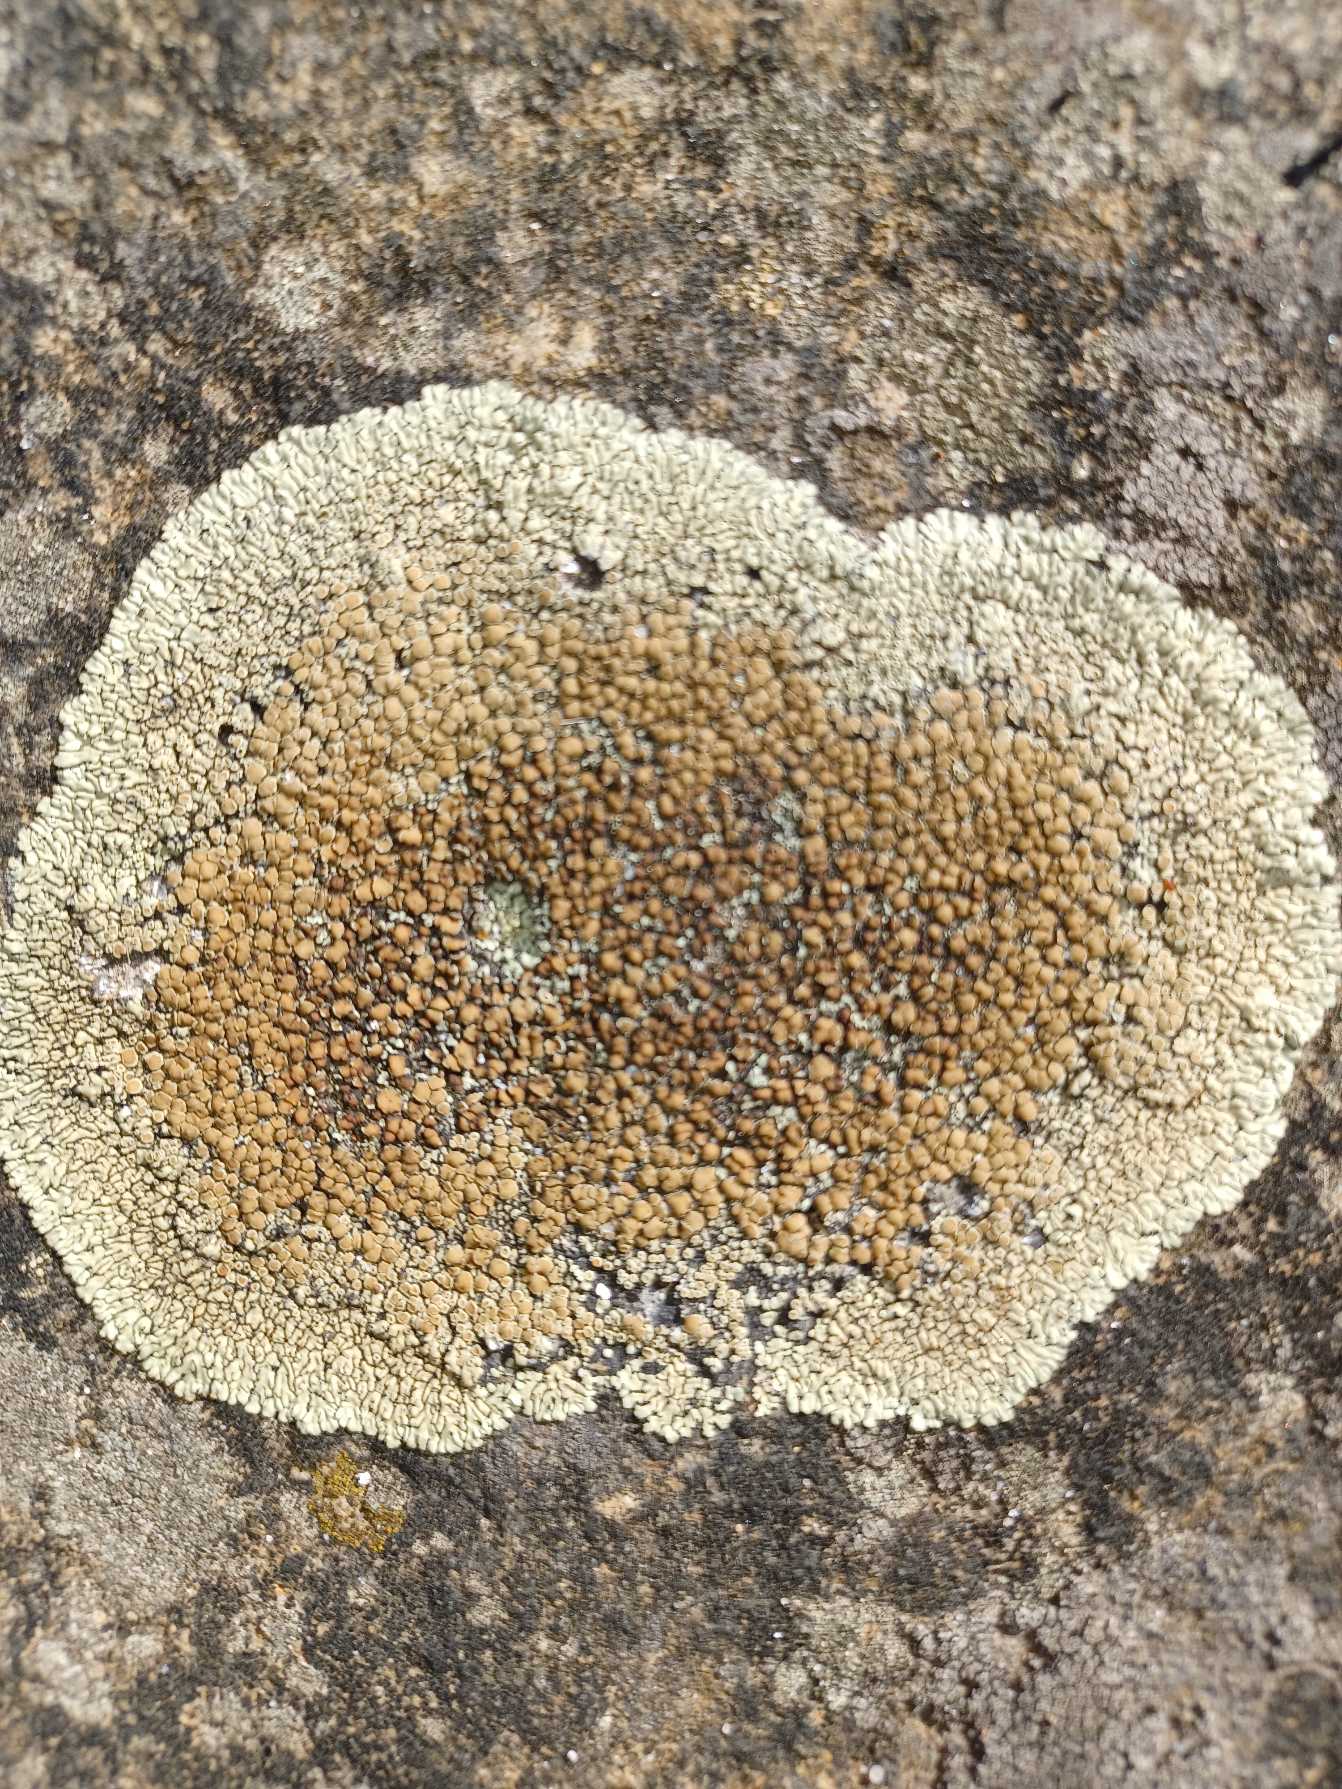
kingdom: Fungi
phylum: Ascomycota
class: Lecanoromycetes
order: Lecanorales
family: Lecanoraceae
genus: Protoparmeliopsis
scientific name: Protoparmeliopsis muralis
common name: Randfliget kantskivelav
